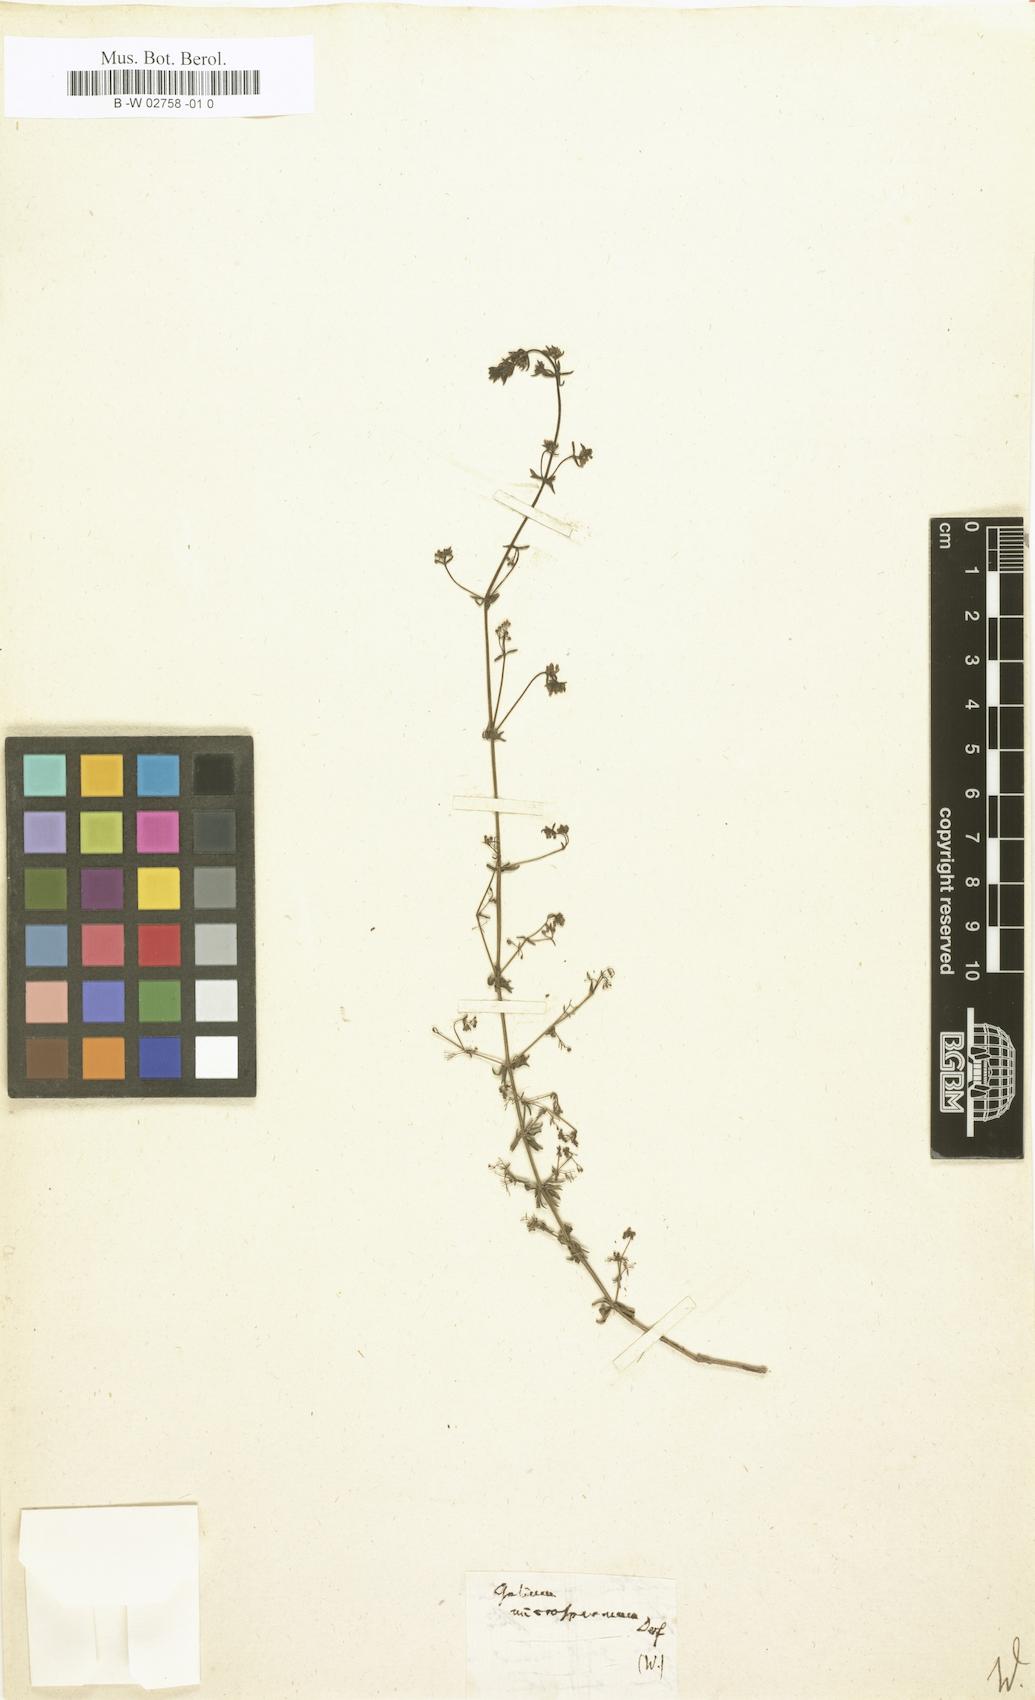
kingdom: Plantae
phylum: Tracheophyta
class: Magnoliopsida
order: Gentianales
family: Rubiaceae
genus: Galium
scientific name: Galium parisiense
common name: Wall bedstraw
